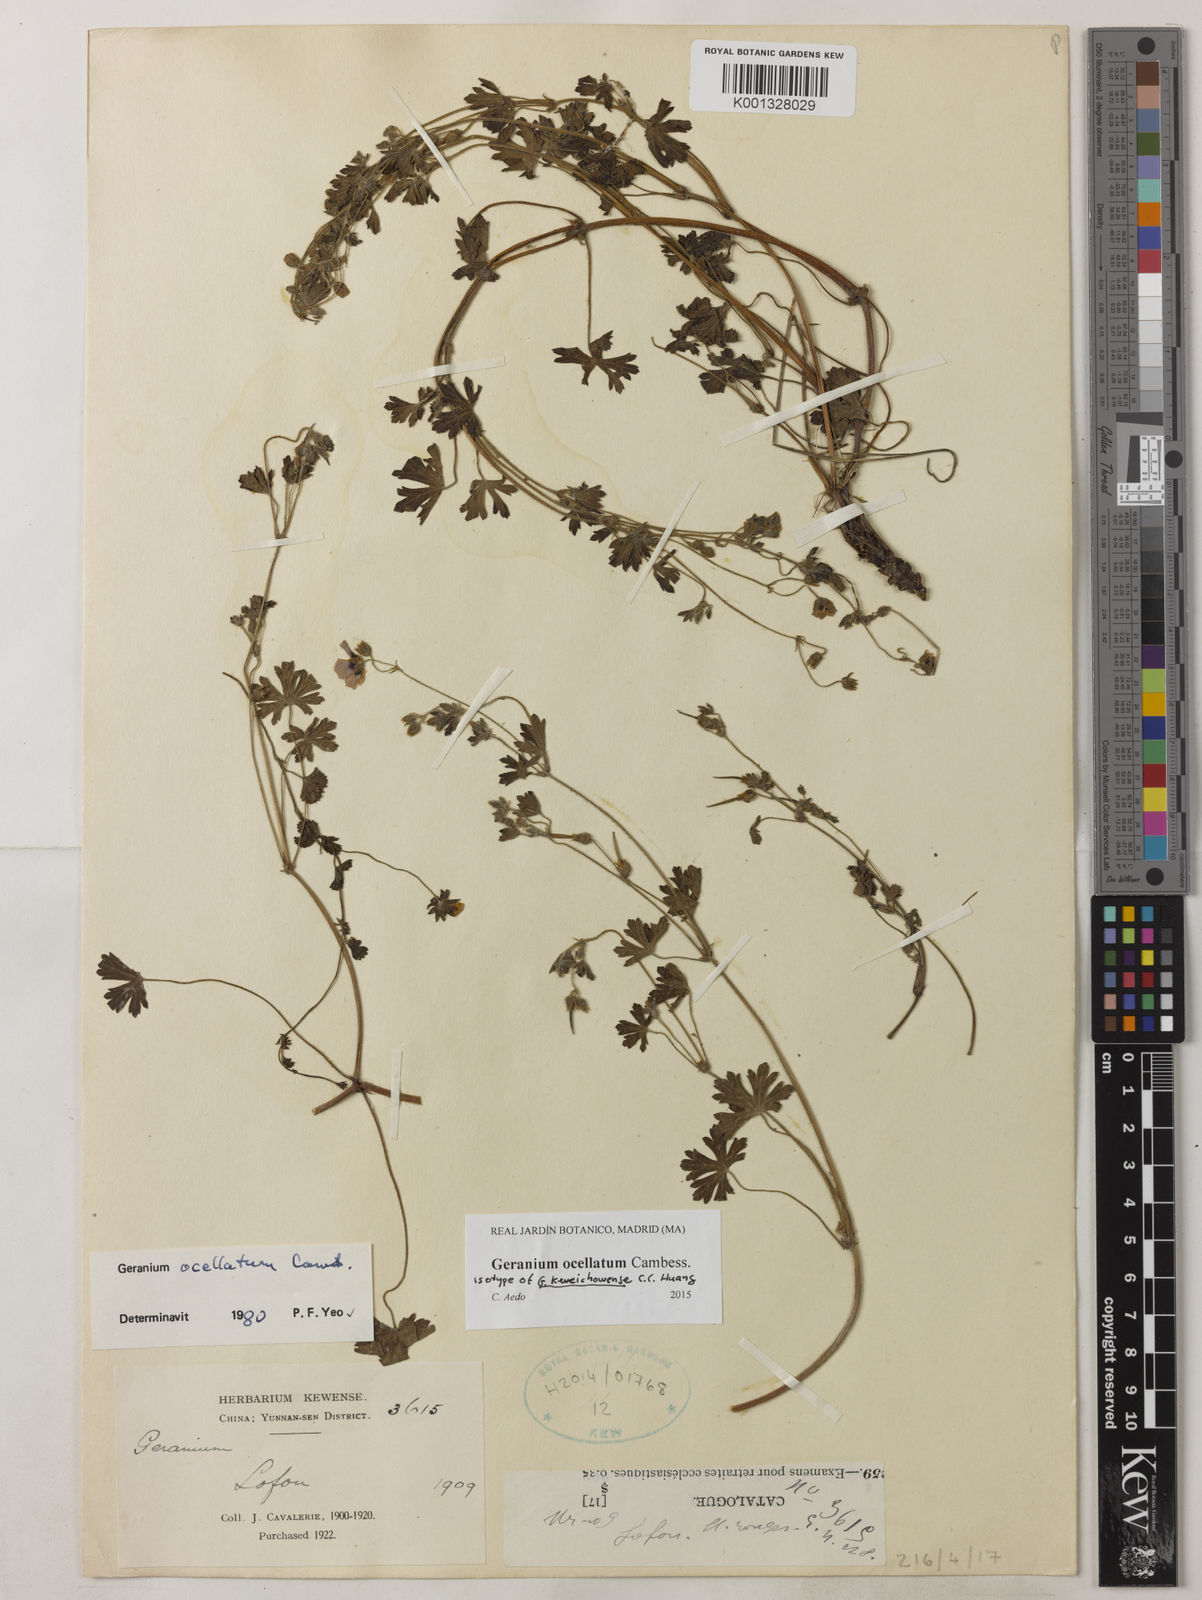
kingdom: Plantae
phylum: Tracheophyta
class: Magnoliopsida
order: Geraniales
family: Geraniaceae
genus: Geranium
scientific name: Geranium ocellatum
